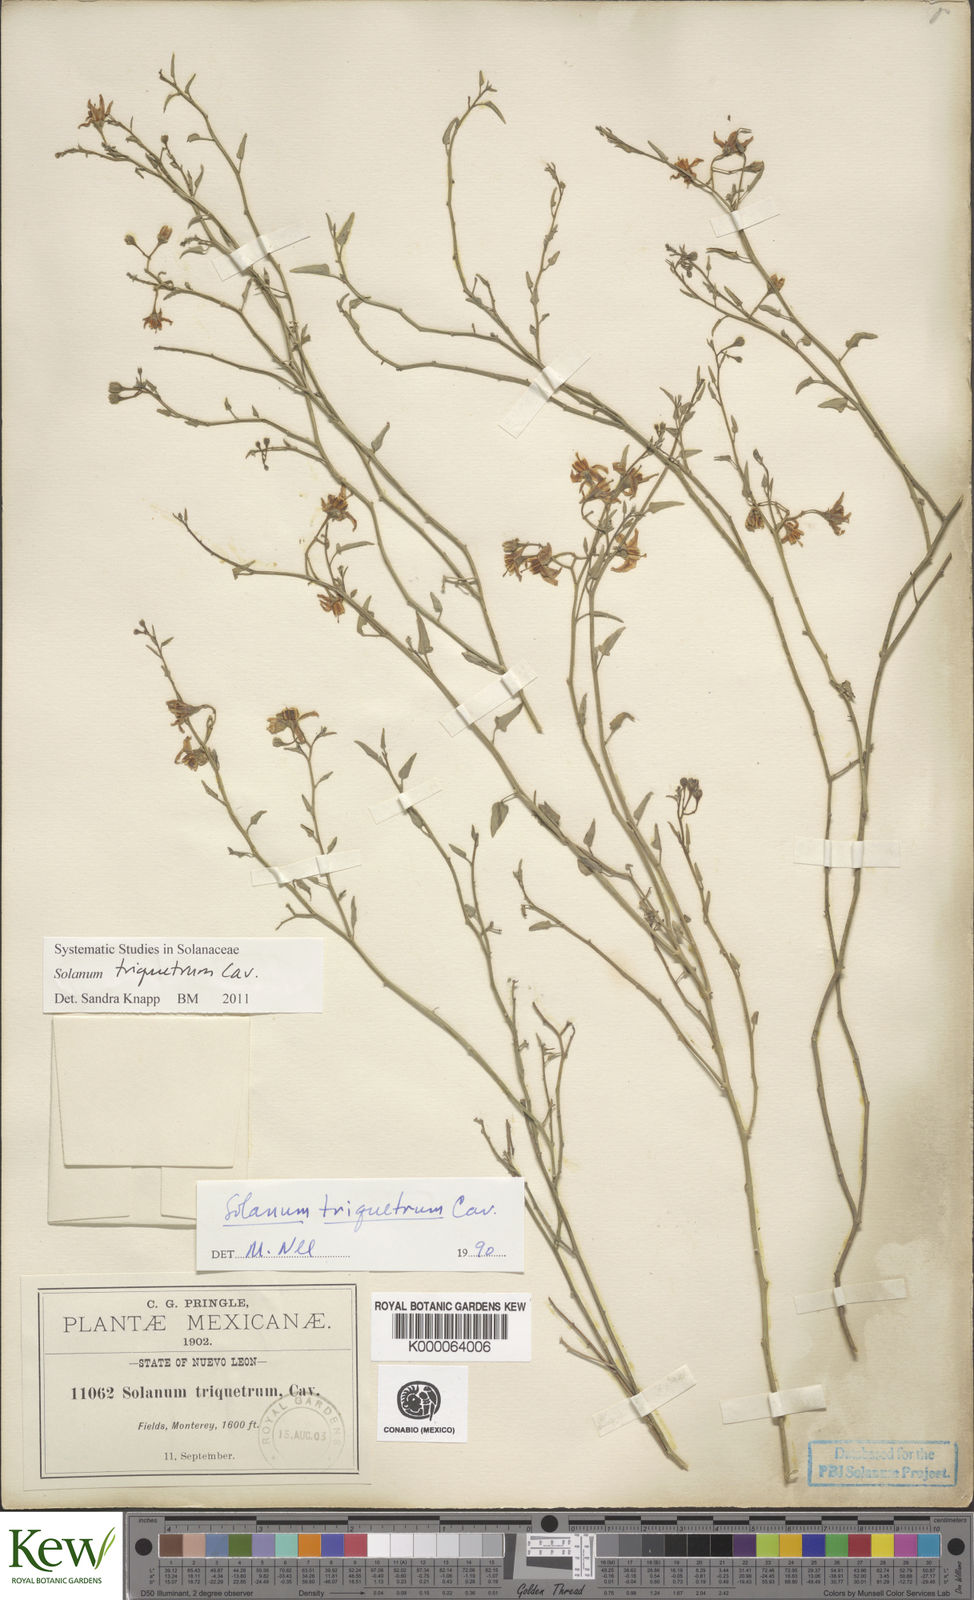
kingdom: Plantae
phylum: Tracheophyta
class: Magnoliopsida
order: Solanales
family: Solanaceae
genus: Solanum
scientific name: Solanum triquetrum
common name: Texas nightshade
